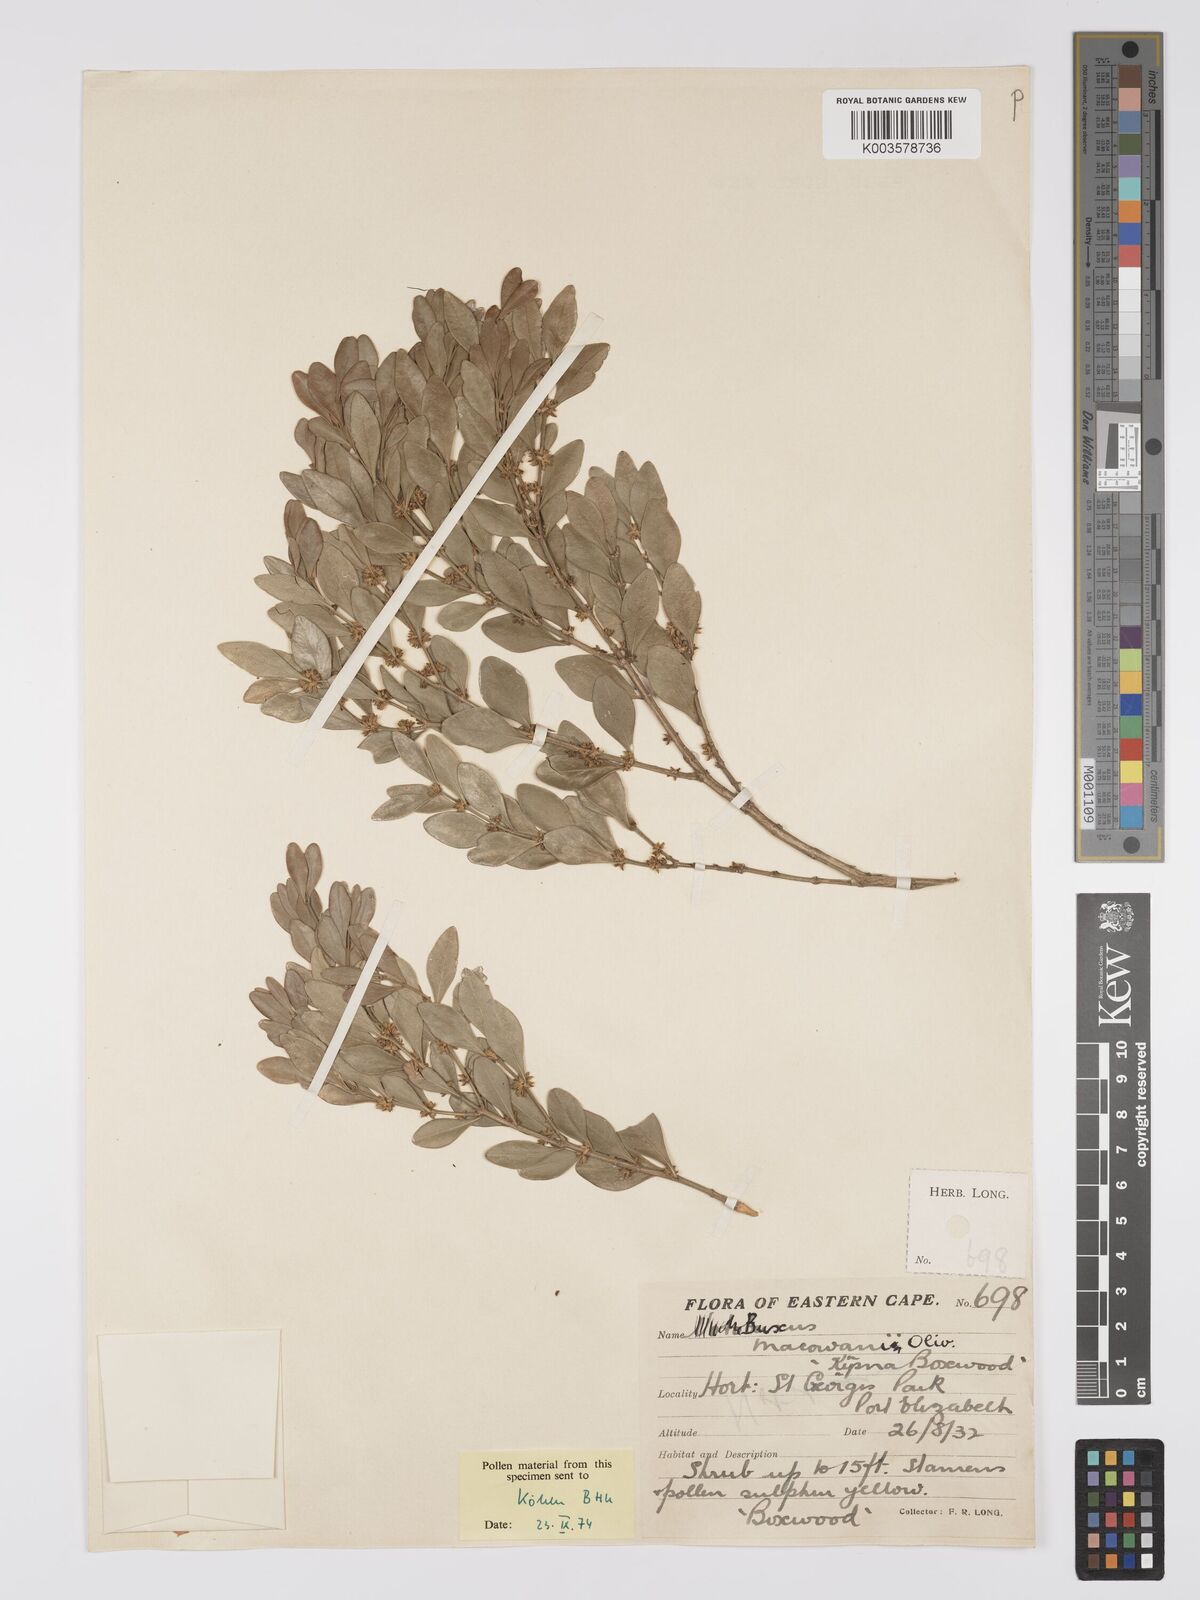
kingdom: Plantae
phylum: Tracheophyta
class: Magnoliopsida
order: Buxales
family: Buxaceae
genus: Buxus
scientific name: Buxus macowanii
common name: Cape box
